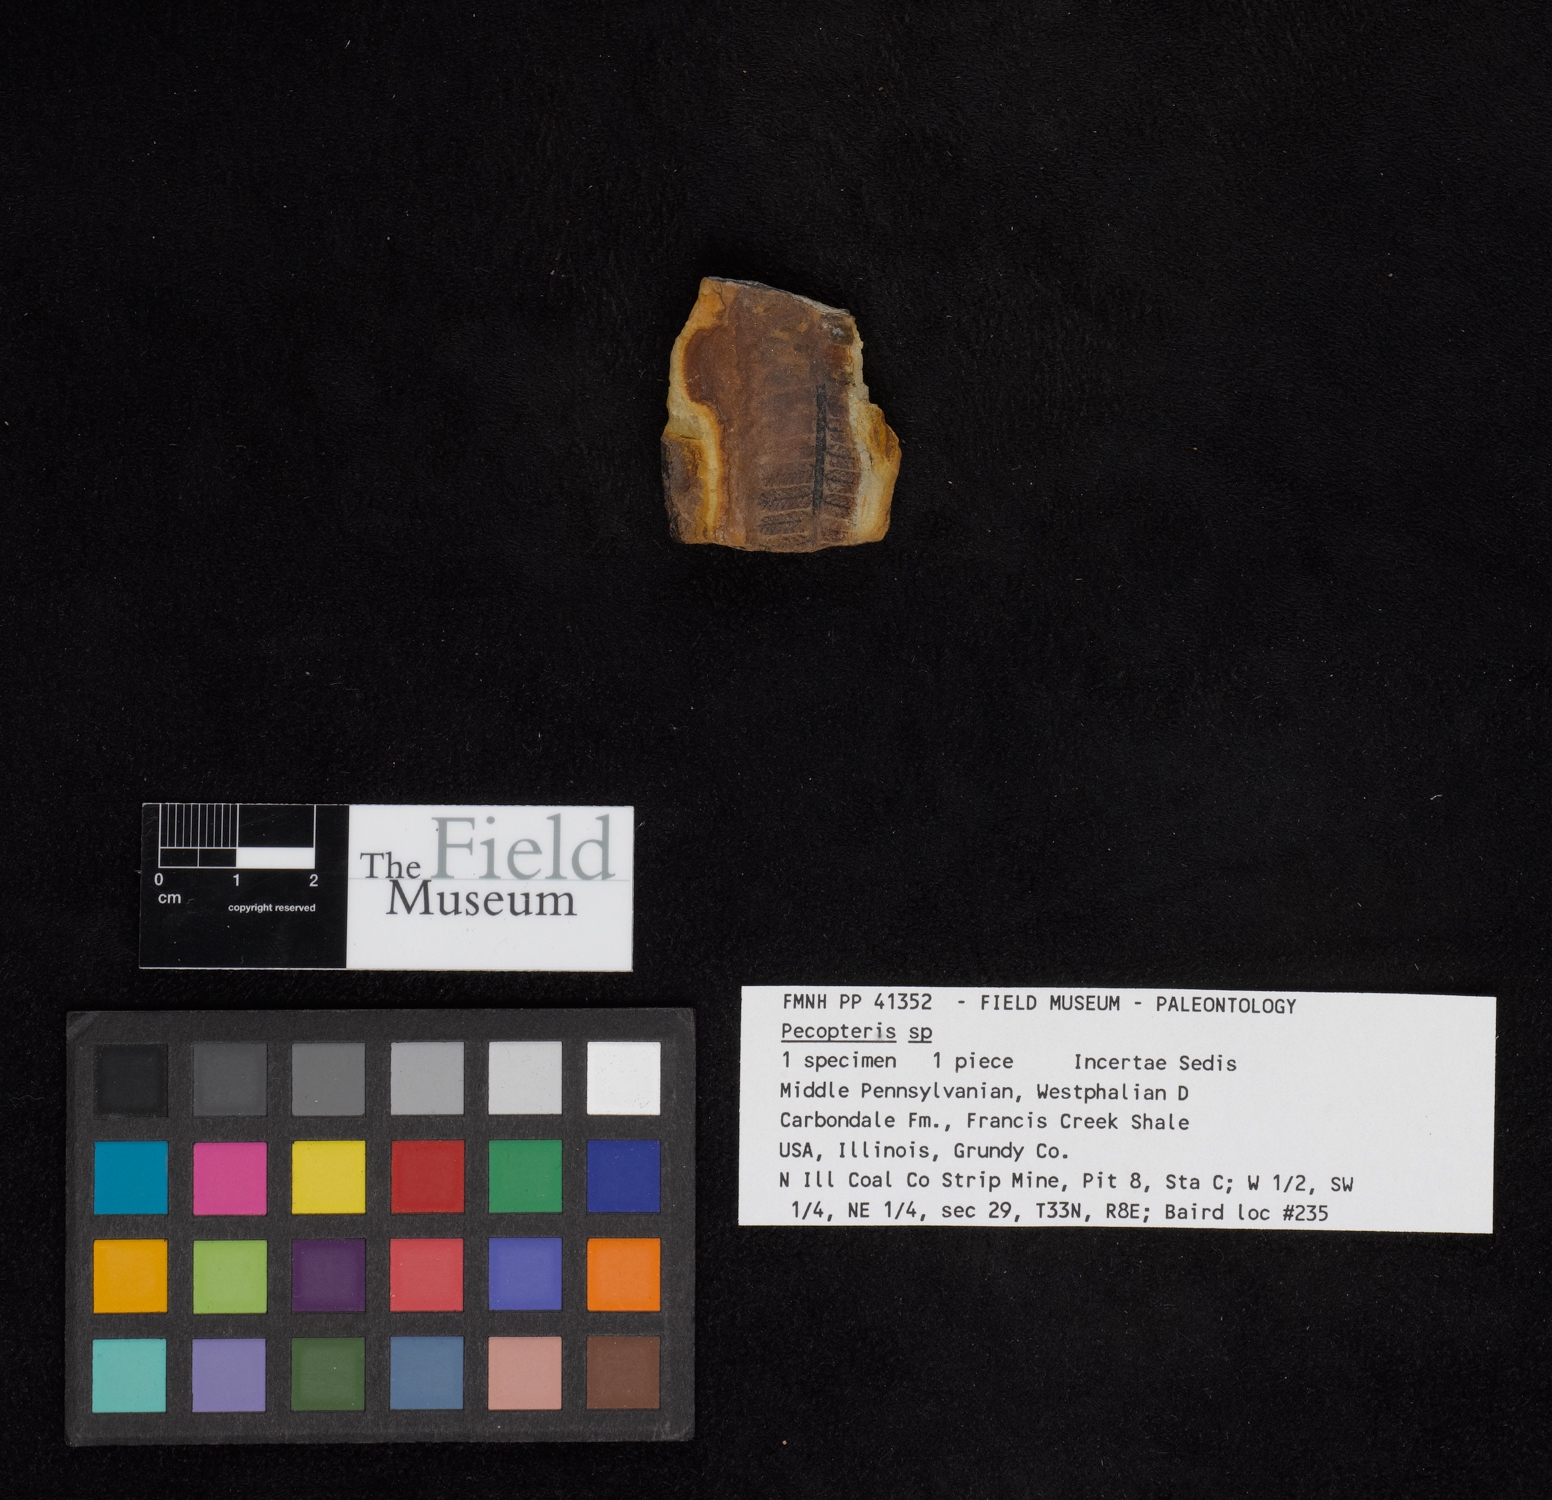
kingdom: Plantae
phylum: Tracheophyta
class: Polypodiopsida
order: Marattiales
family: Asterothecaceae
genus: Pecopteris
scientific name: Pecopteris
